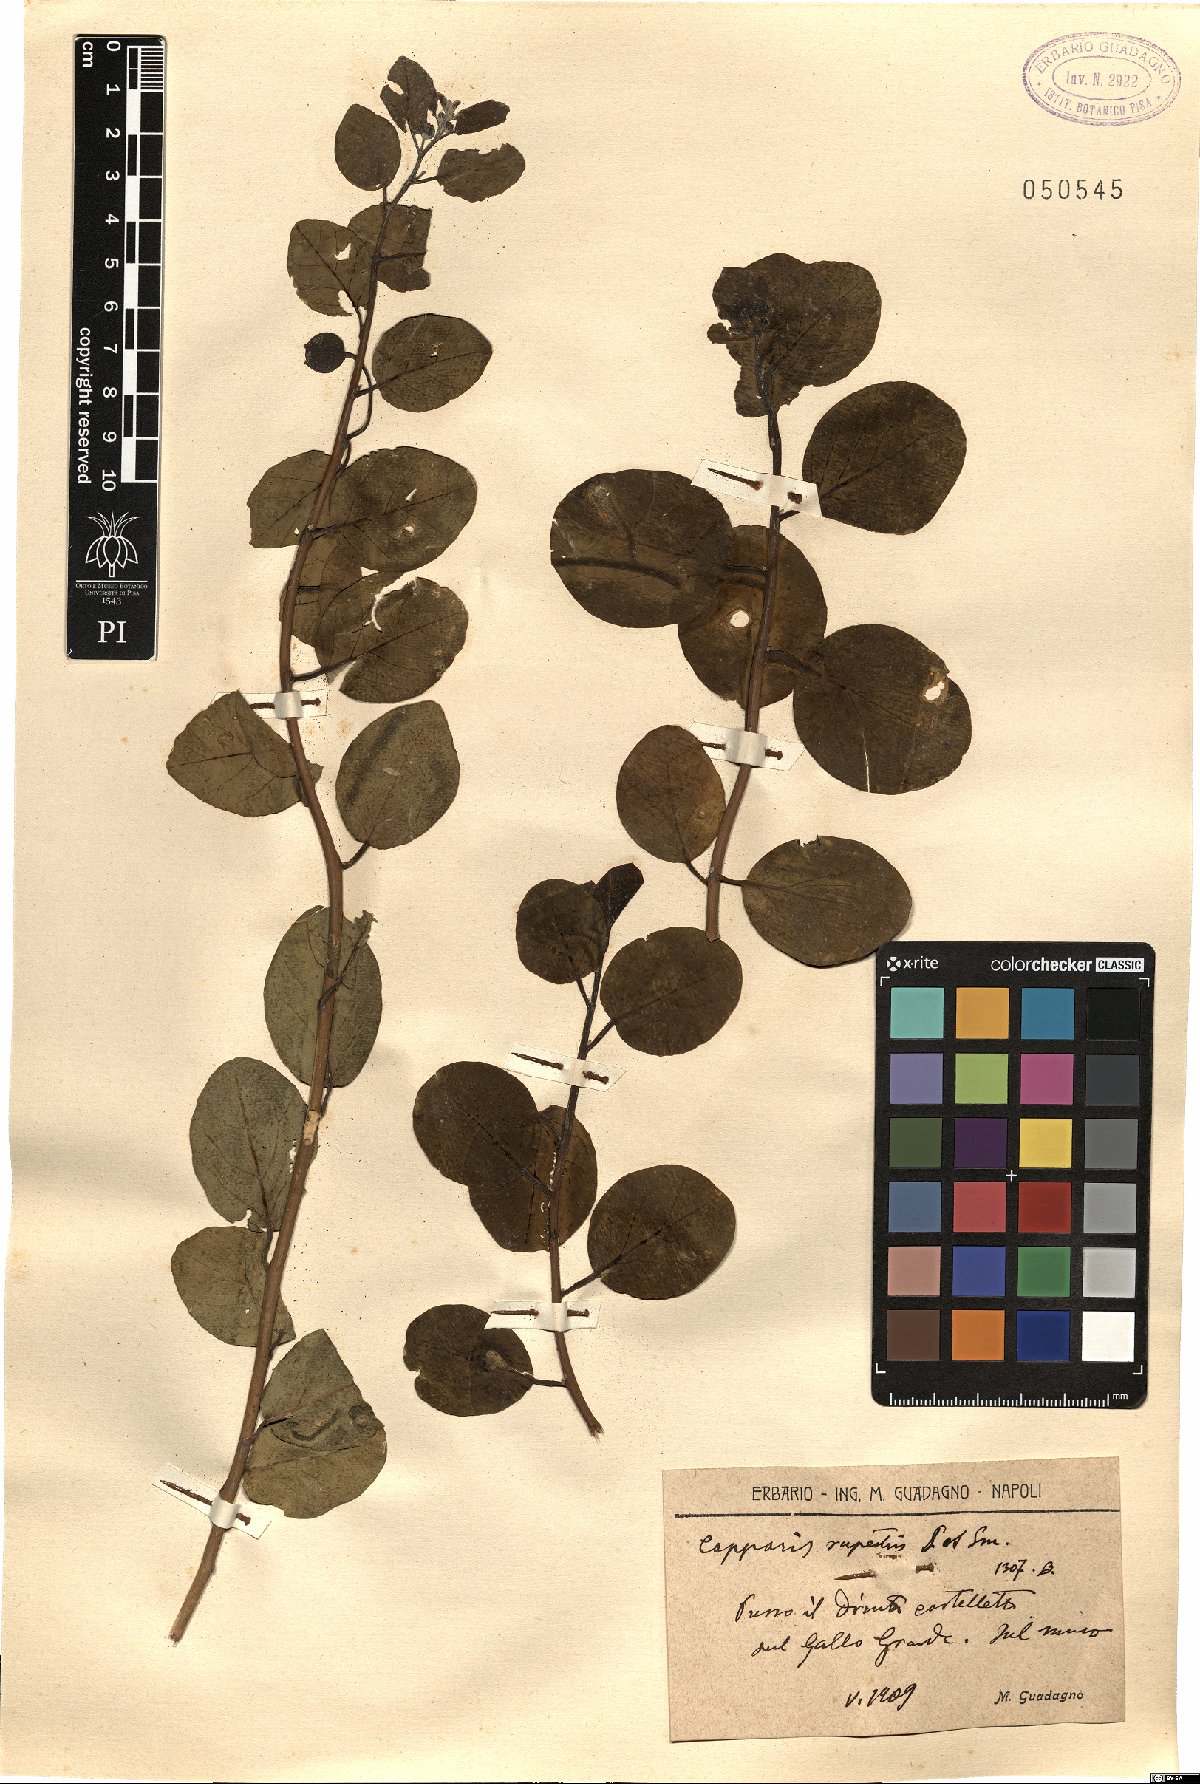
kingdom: Plantae
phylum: Tracheophyta
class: Magnoliopsida
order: Brassicales
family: Capparaceae
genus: Capparis
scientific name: Capparis spinosa
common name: Caper
